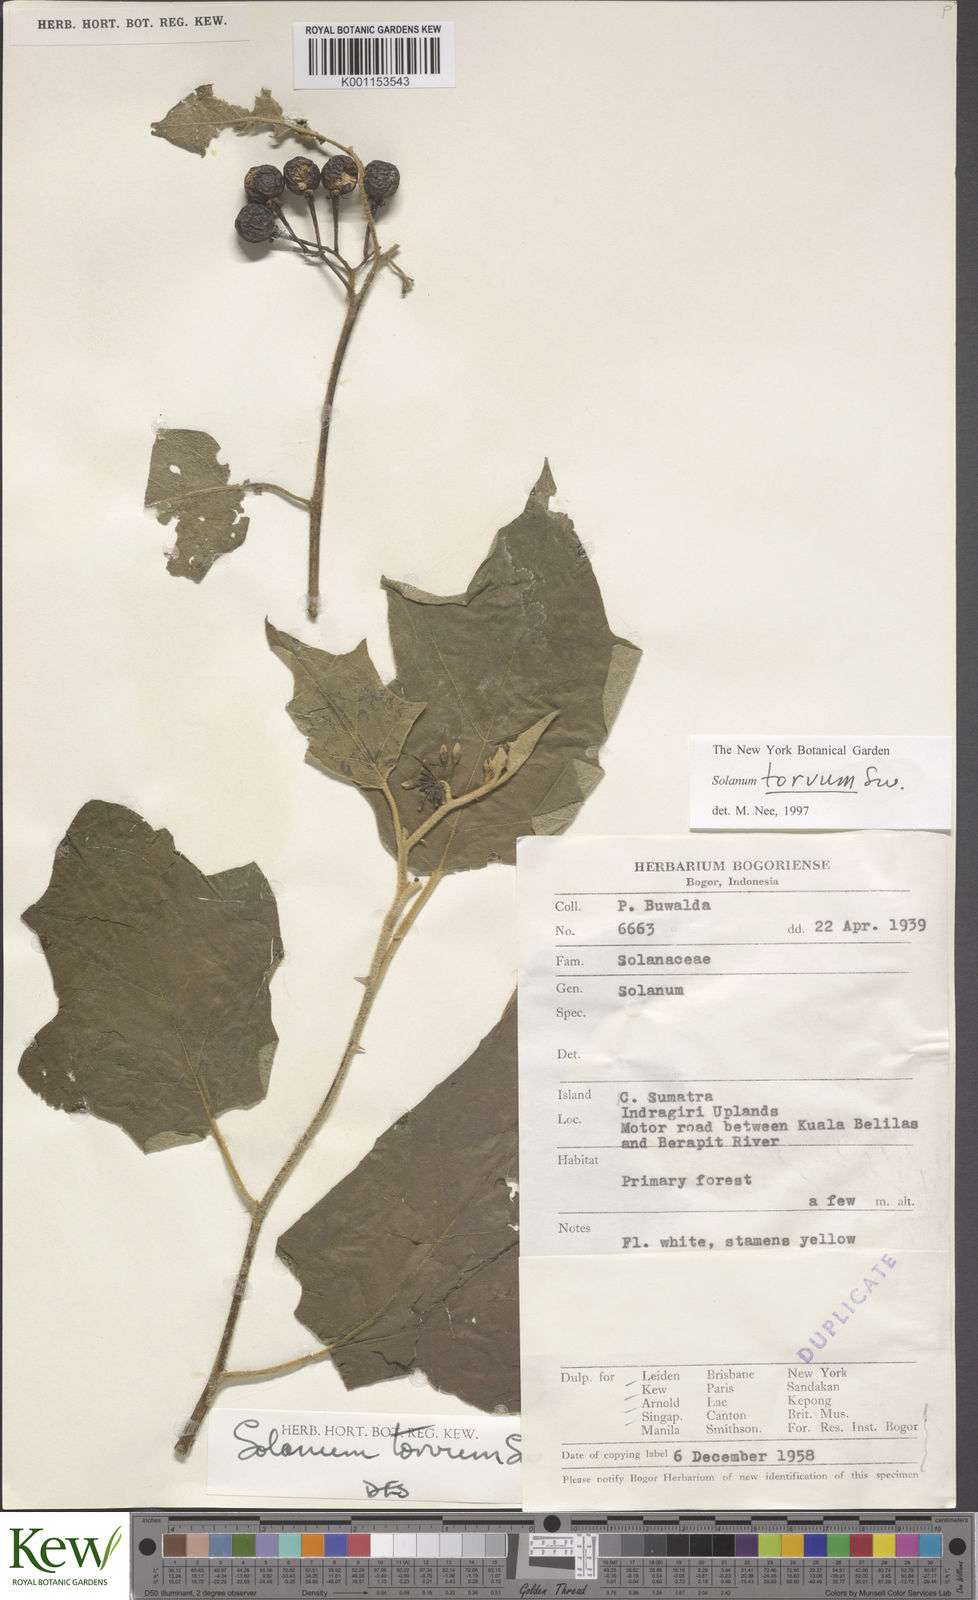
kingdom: Plantae
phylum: Tracheophyta
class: Magnoliopsida
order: Solanales
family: Solanaceae
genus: Solanum
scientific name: Solanum torvum
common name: Turkey berry
